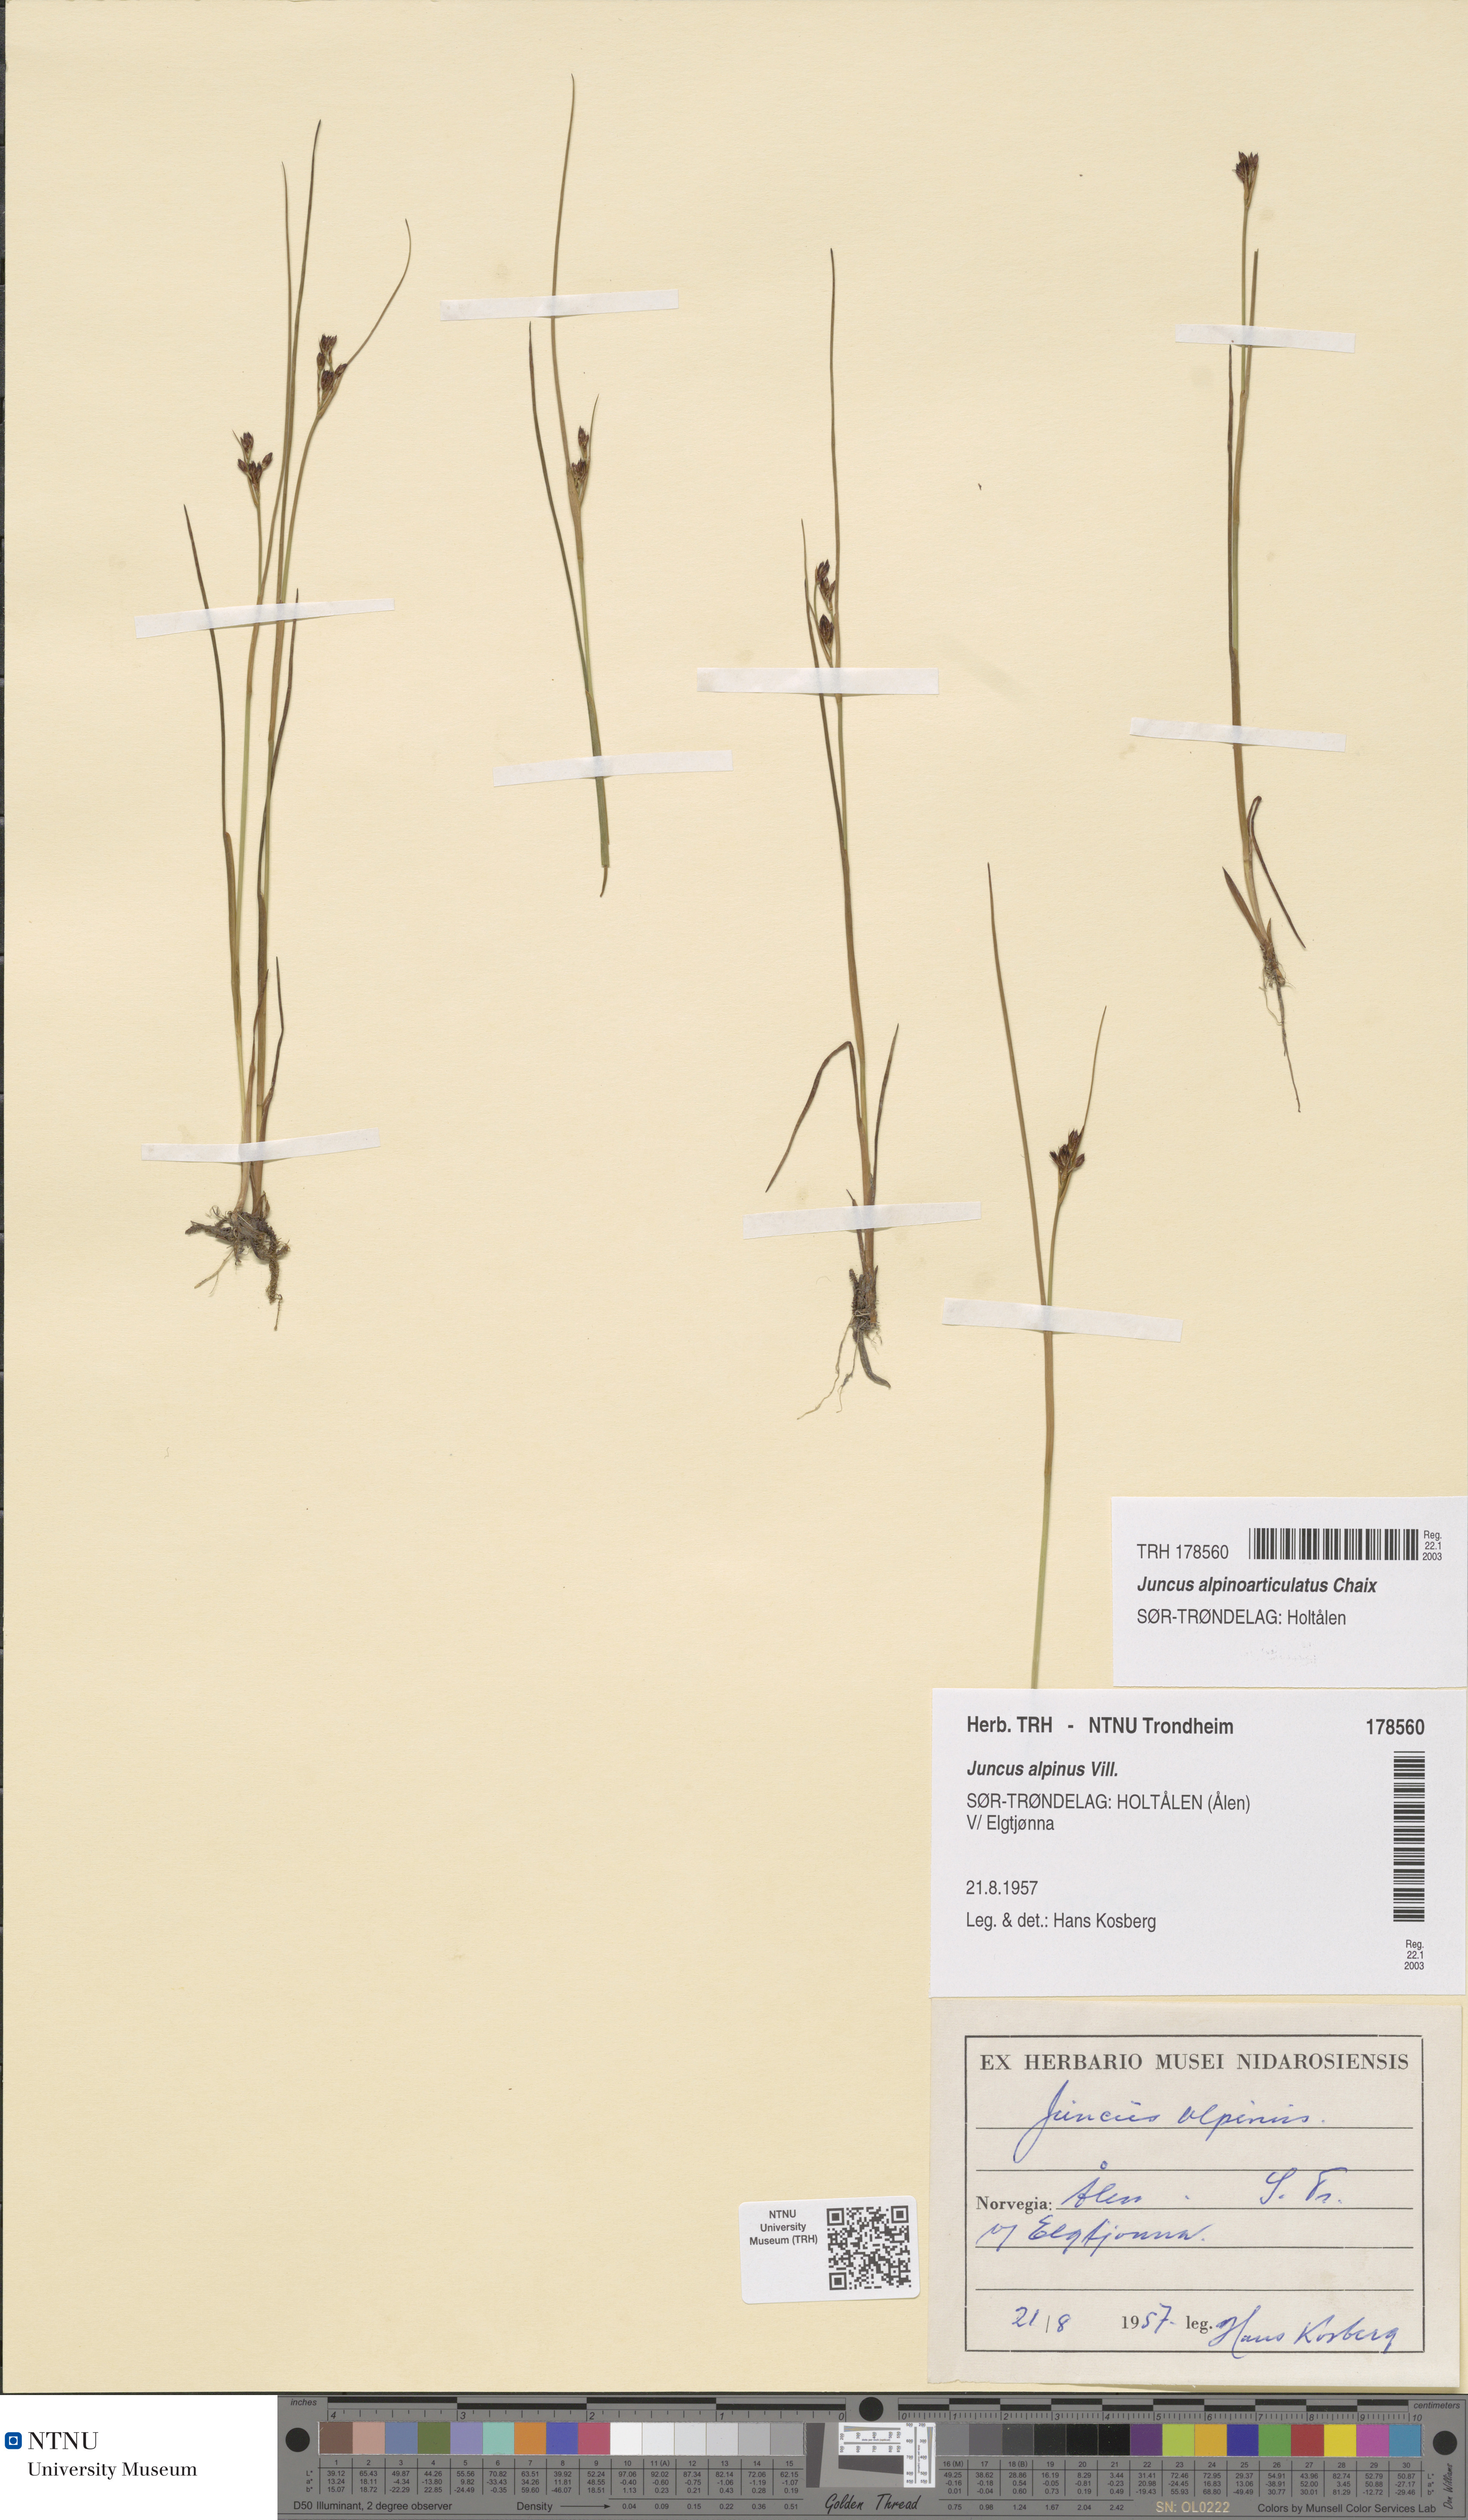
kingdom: Plantae
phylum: Tracheophyta
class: Liliopsida
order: Poales
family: Juncaceae
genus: Juncus
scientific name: Juncus alpinoarticulatus
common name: Alpine rush
